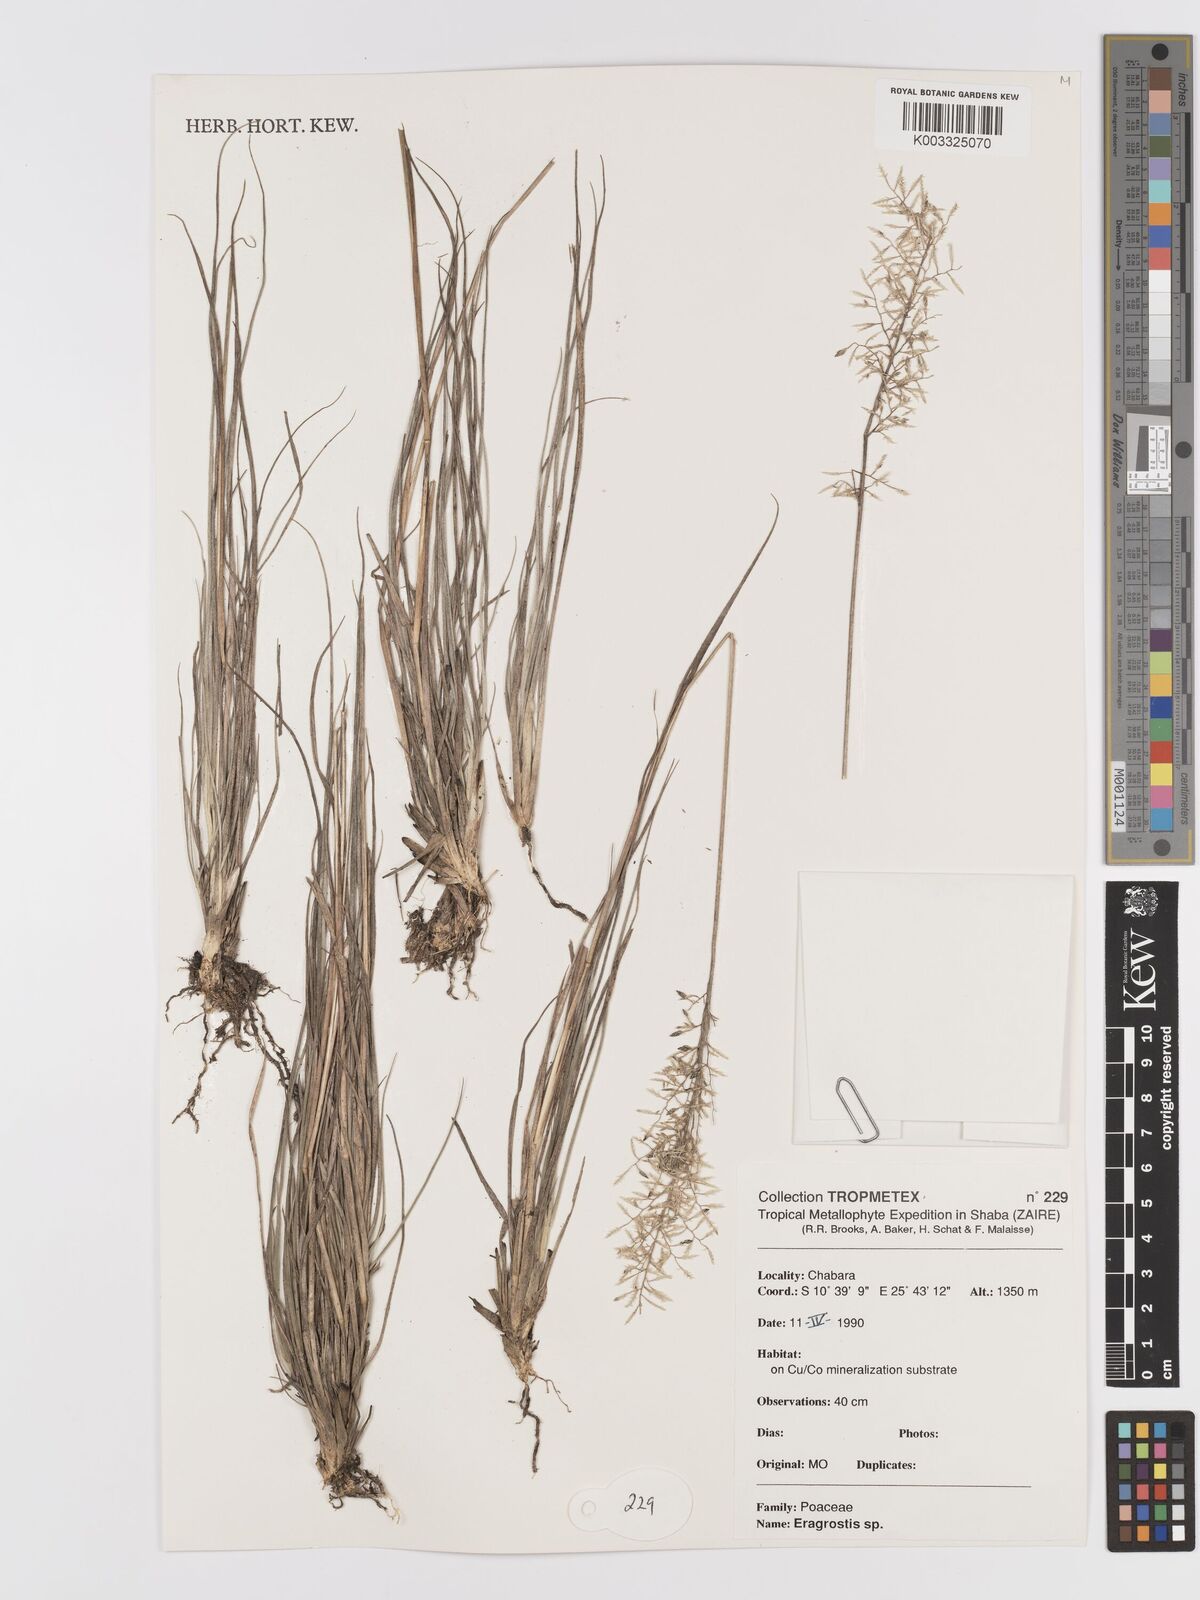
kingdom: Plantae
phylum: Tracheophyta
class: Liliopsida
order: Poales
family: Poaceae
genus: Eragrostis
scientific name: Eragrostis
